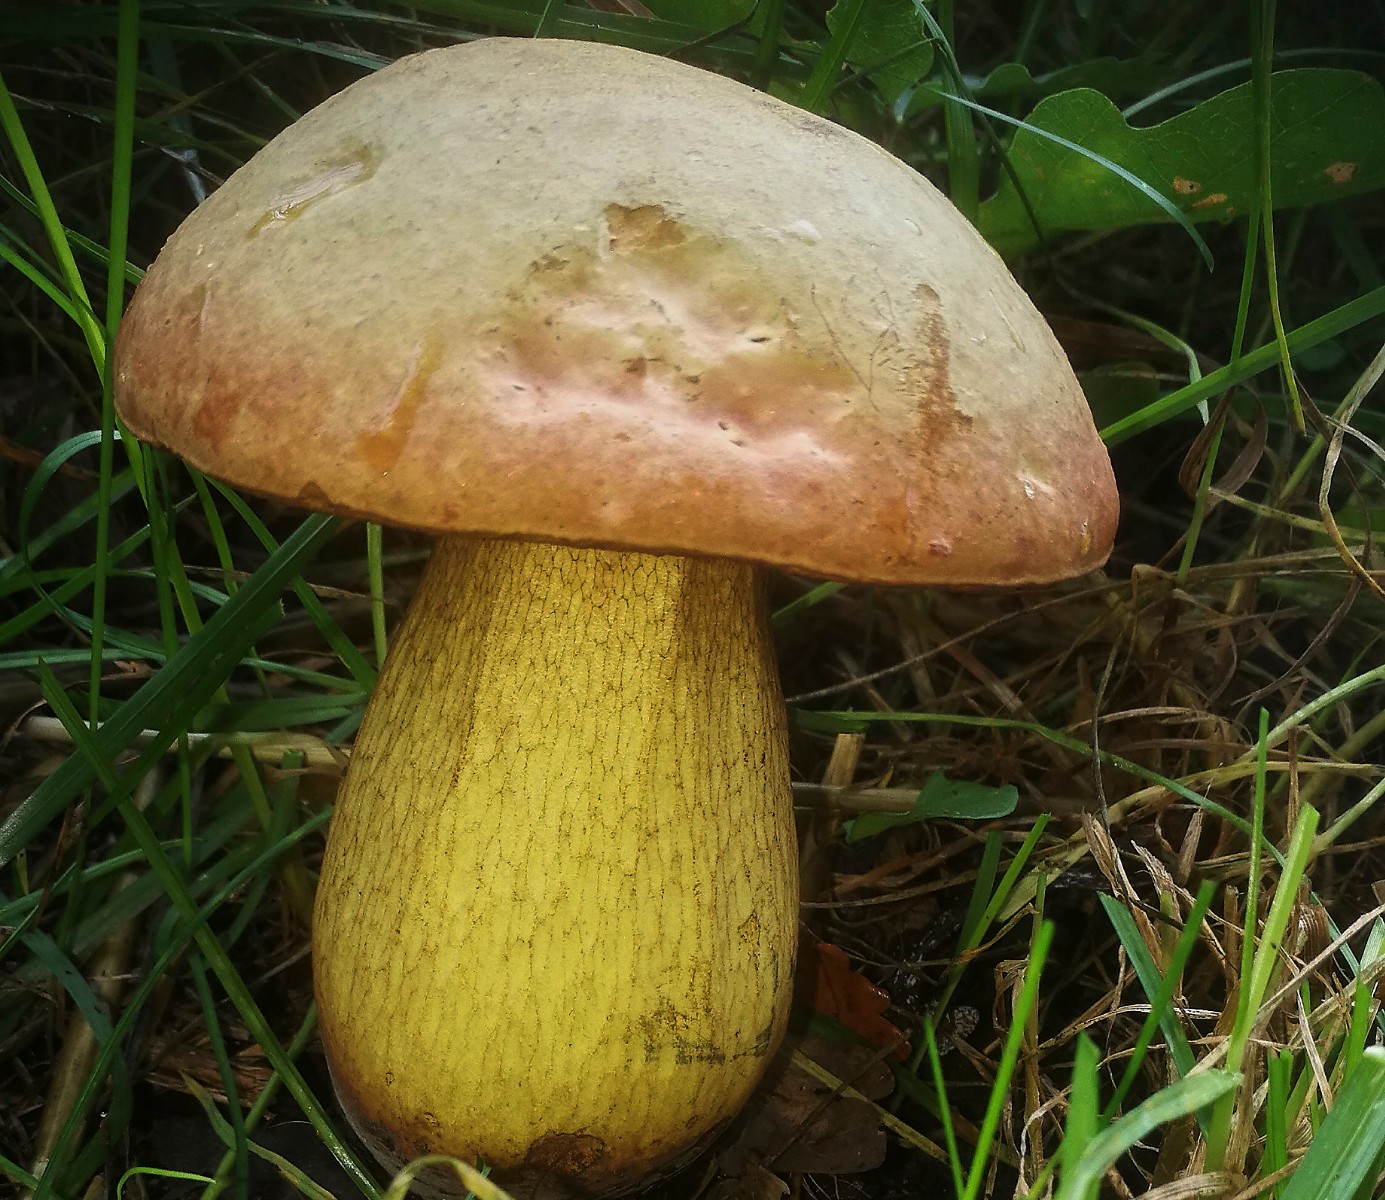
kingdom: Fungi
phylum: Basidiomycota
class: Agaricomycetes
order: Boletales
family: Boletaceae
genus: Suillellus
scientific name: Suillellus luridus
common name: netstokket indigorørhat
